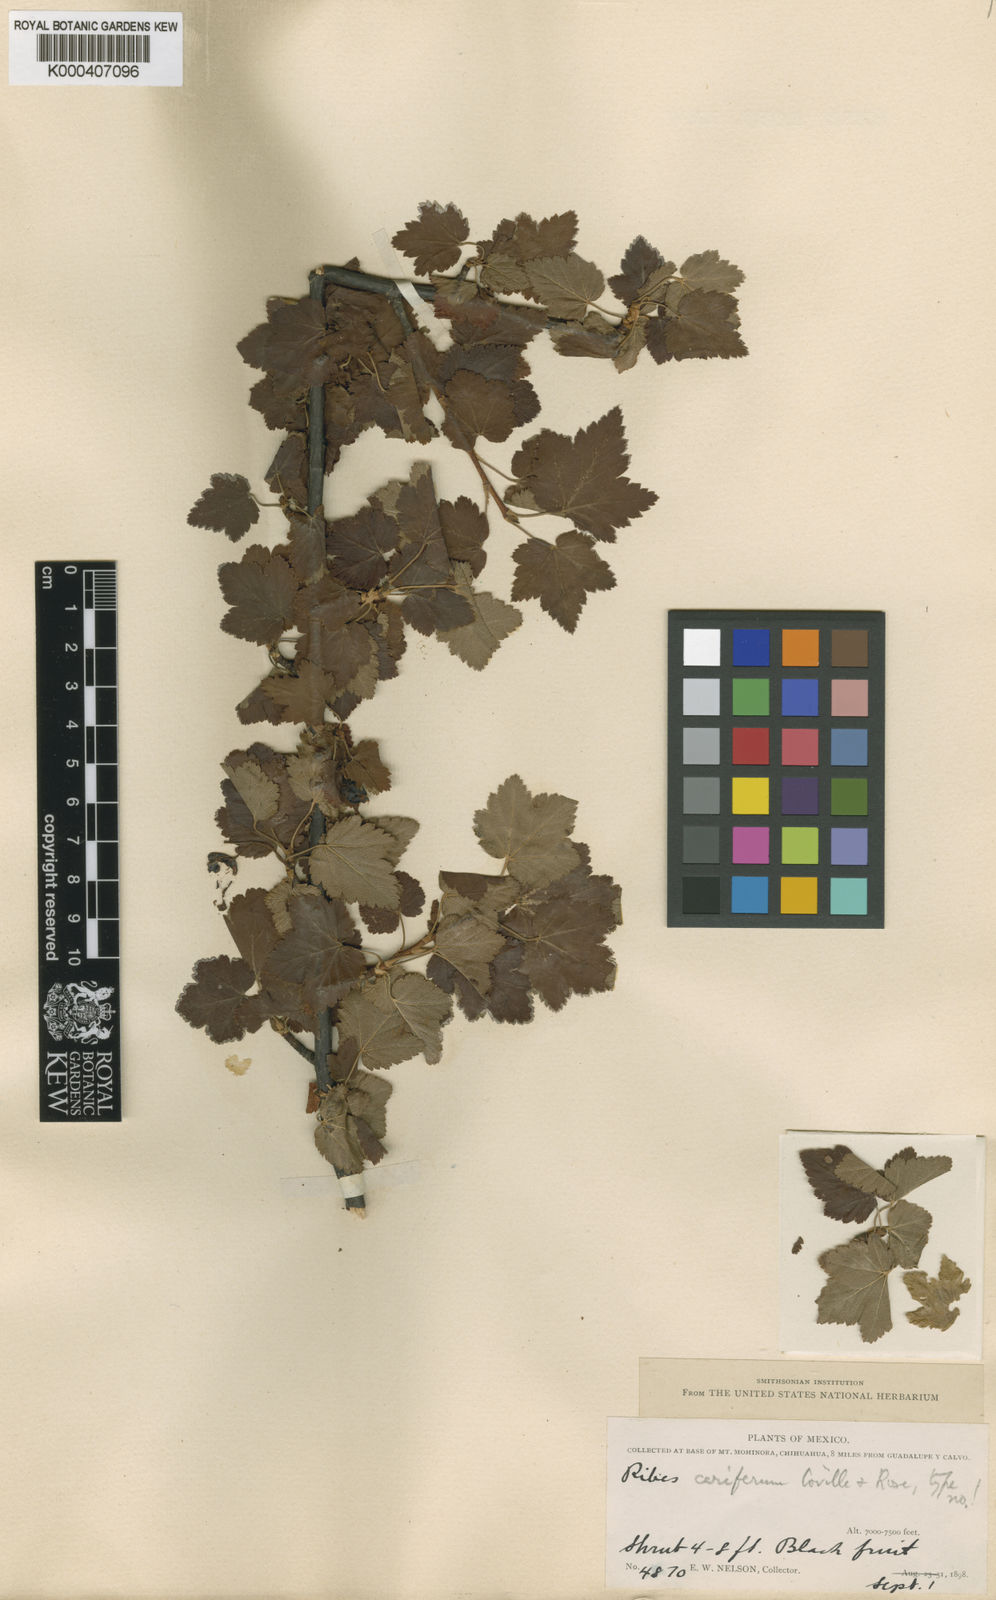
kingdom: Plantae
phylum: Tracheophyta
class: Magnoliopsida
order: Saxifragales
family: Grossulariaceae
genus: Ribes
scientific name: Ribes ceriferum
